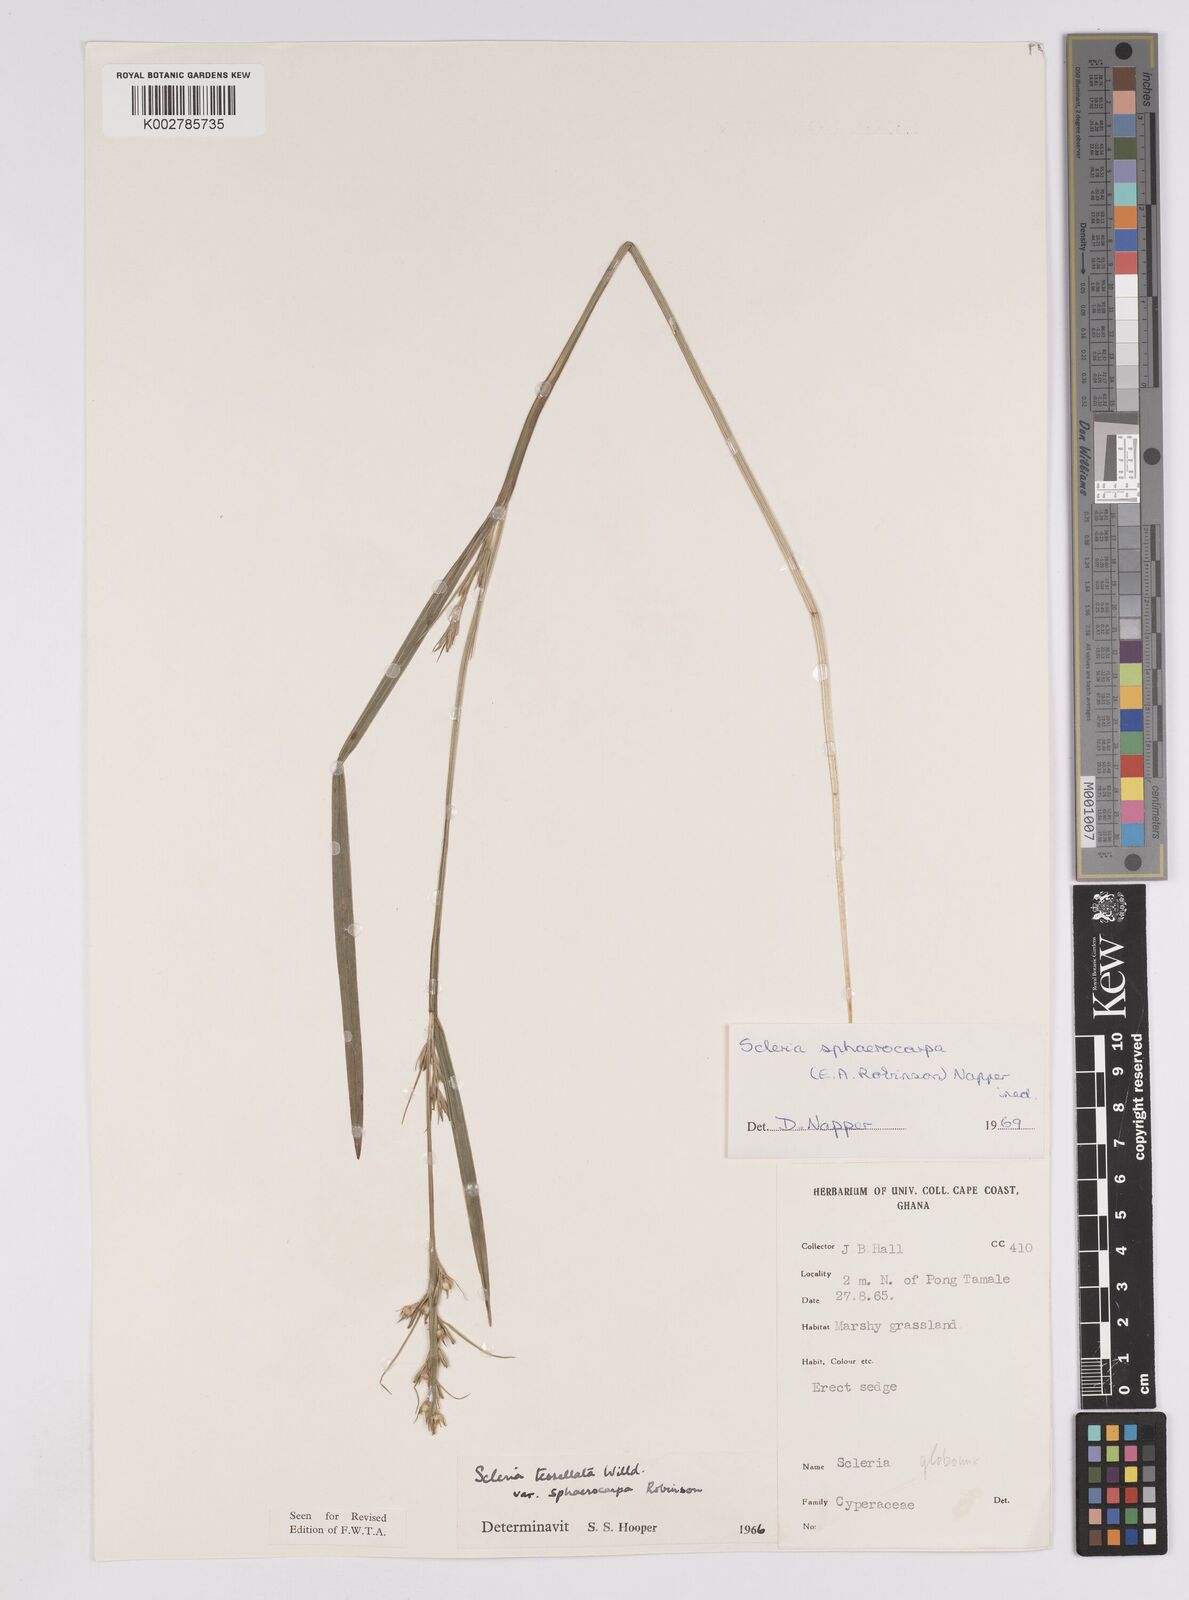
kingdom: Plantae
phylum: Tracheophyta
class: Liliopsida
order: Poales
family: Cyperaceae
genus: Scleria
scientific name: Scleria tessellata
